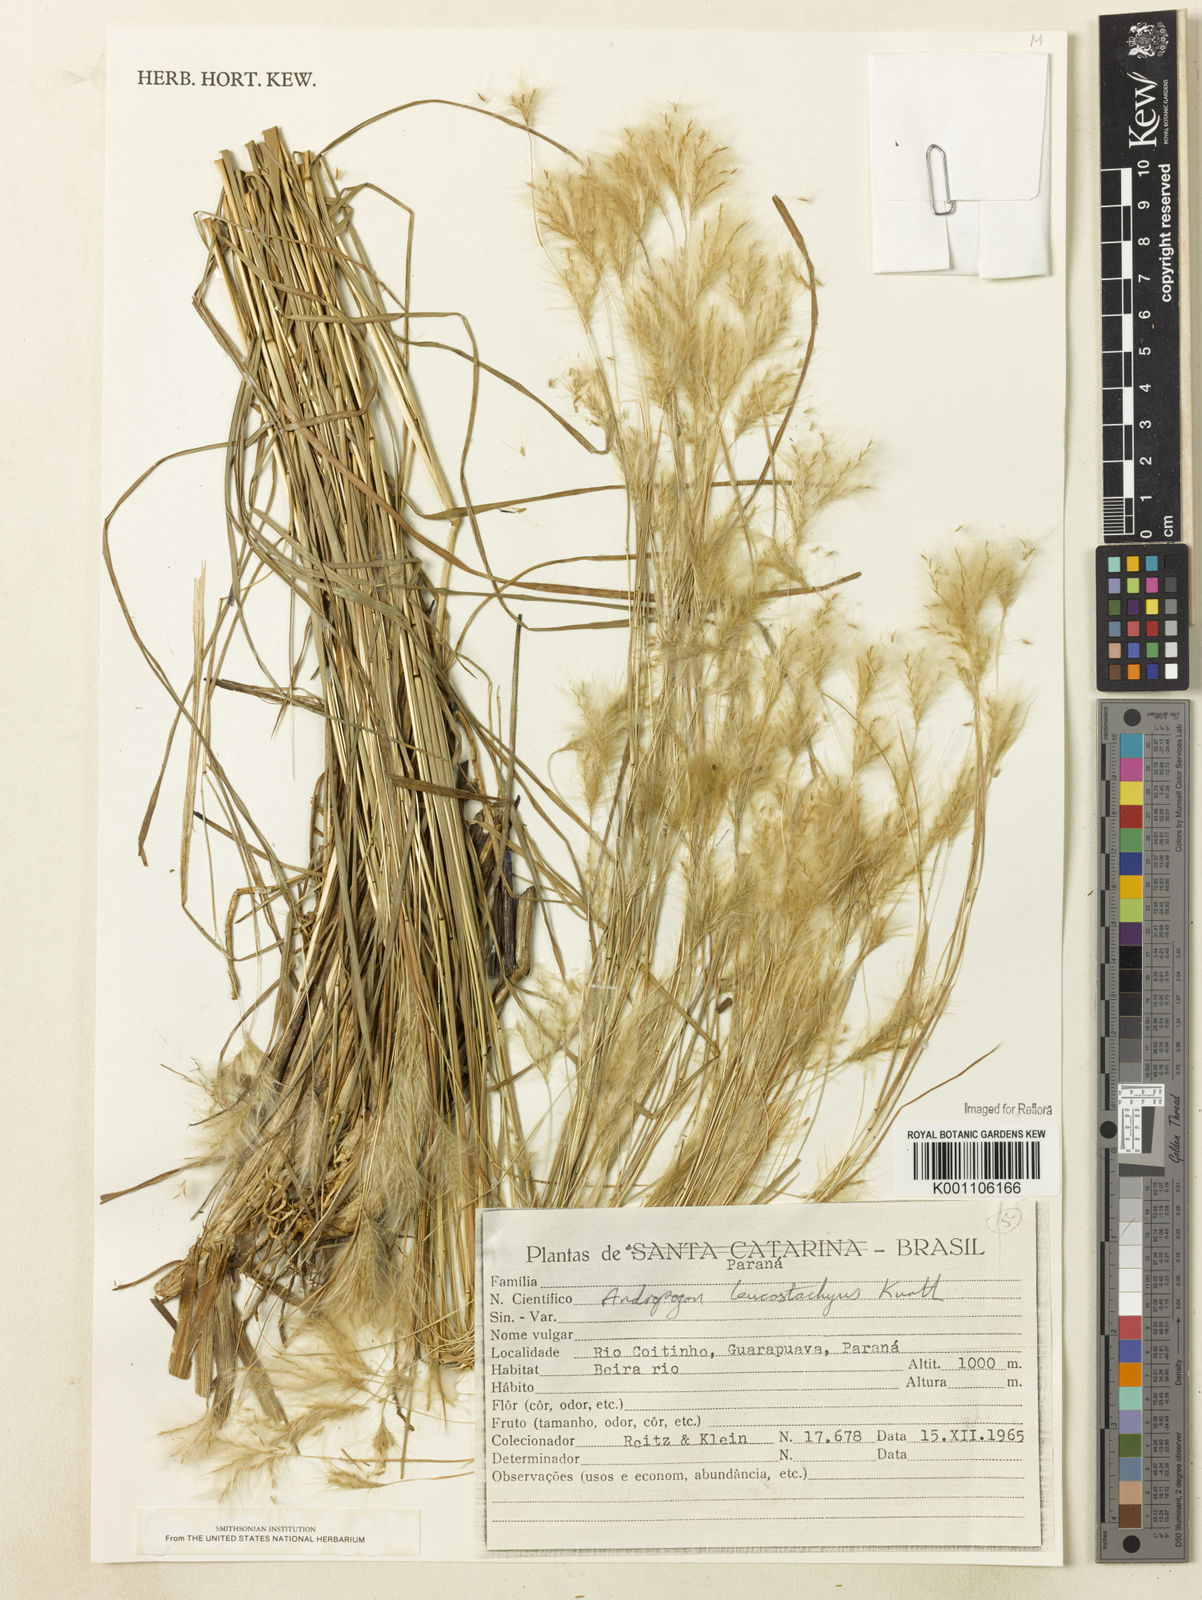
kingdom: Plantae
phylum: Tracheophyta
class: Liliopsida
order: Poales
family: Poaceae
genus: Andropogon
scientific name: Andropogon leucostachyus
